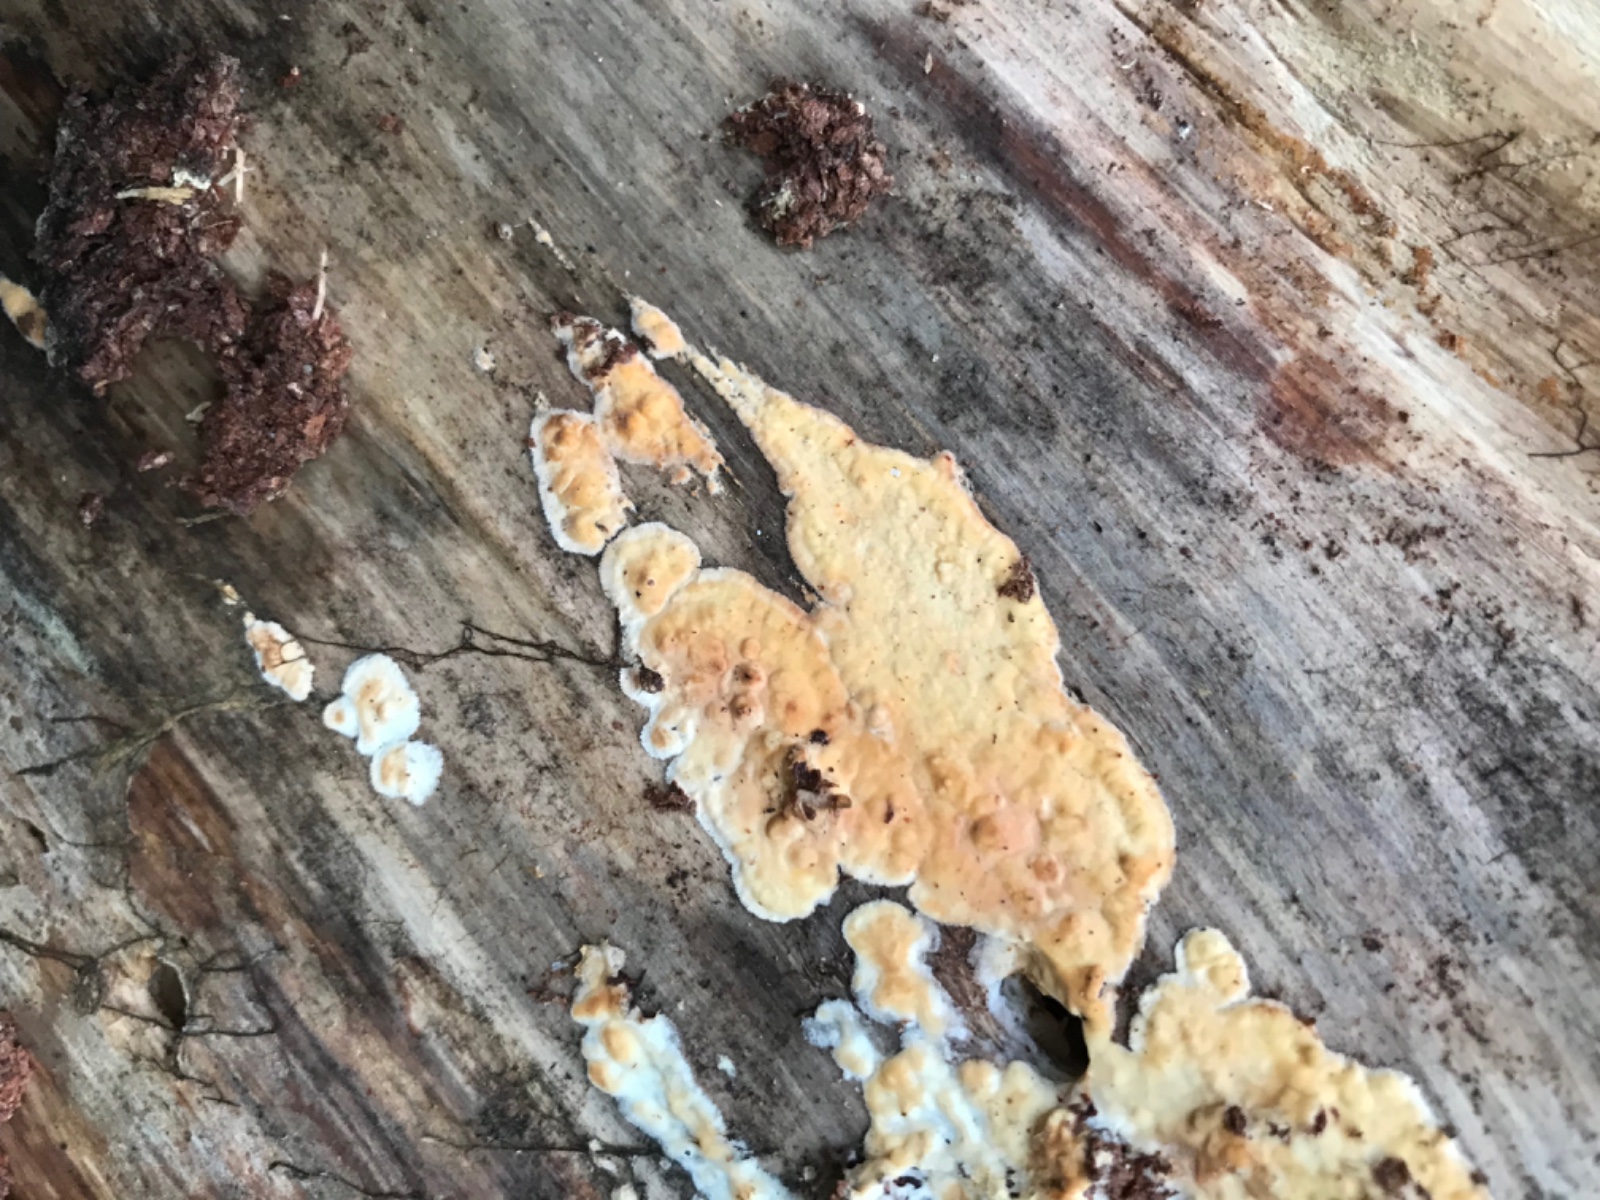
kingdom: Fungi
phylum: Basidiomycota
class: Agaricomycetes
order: Corticiales
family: Corticiaceae
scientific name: Corticiaceae
